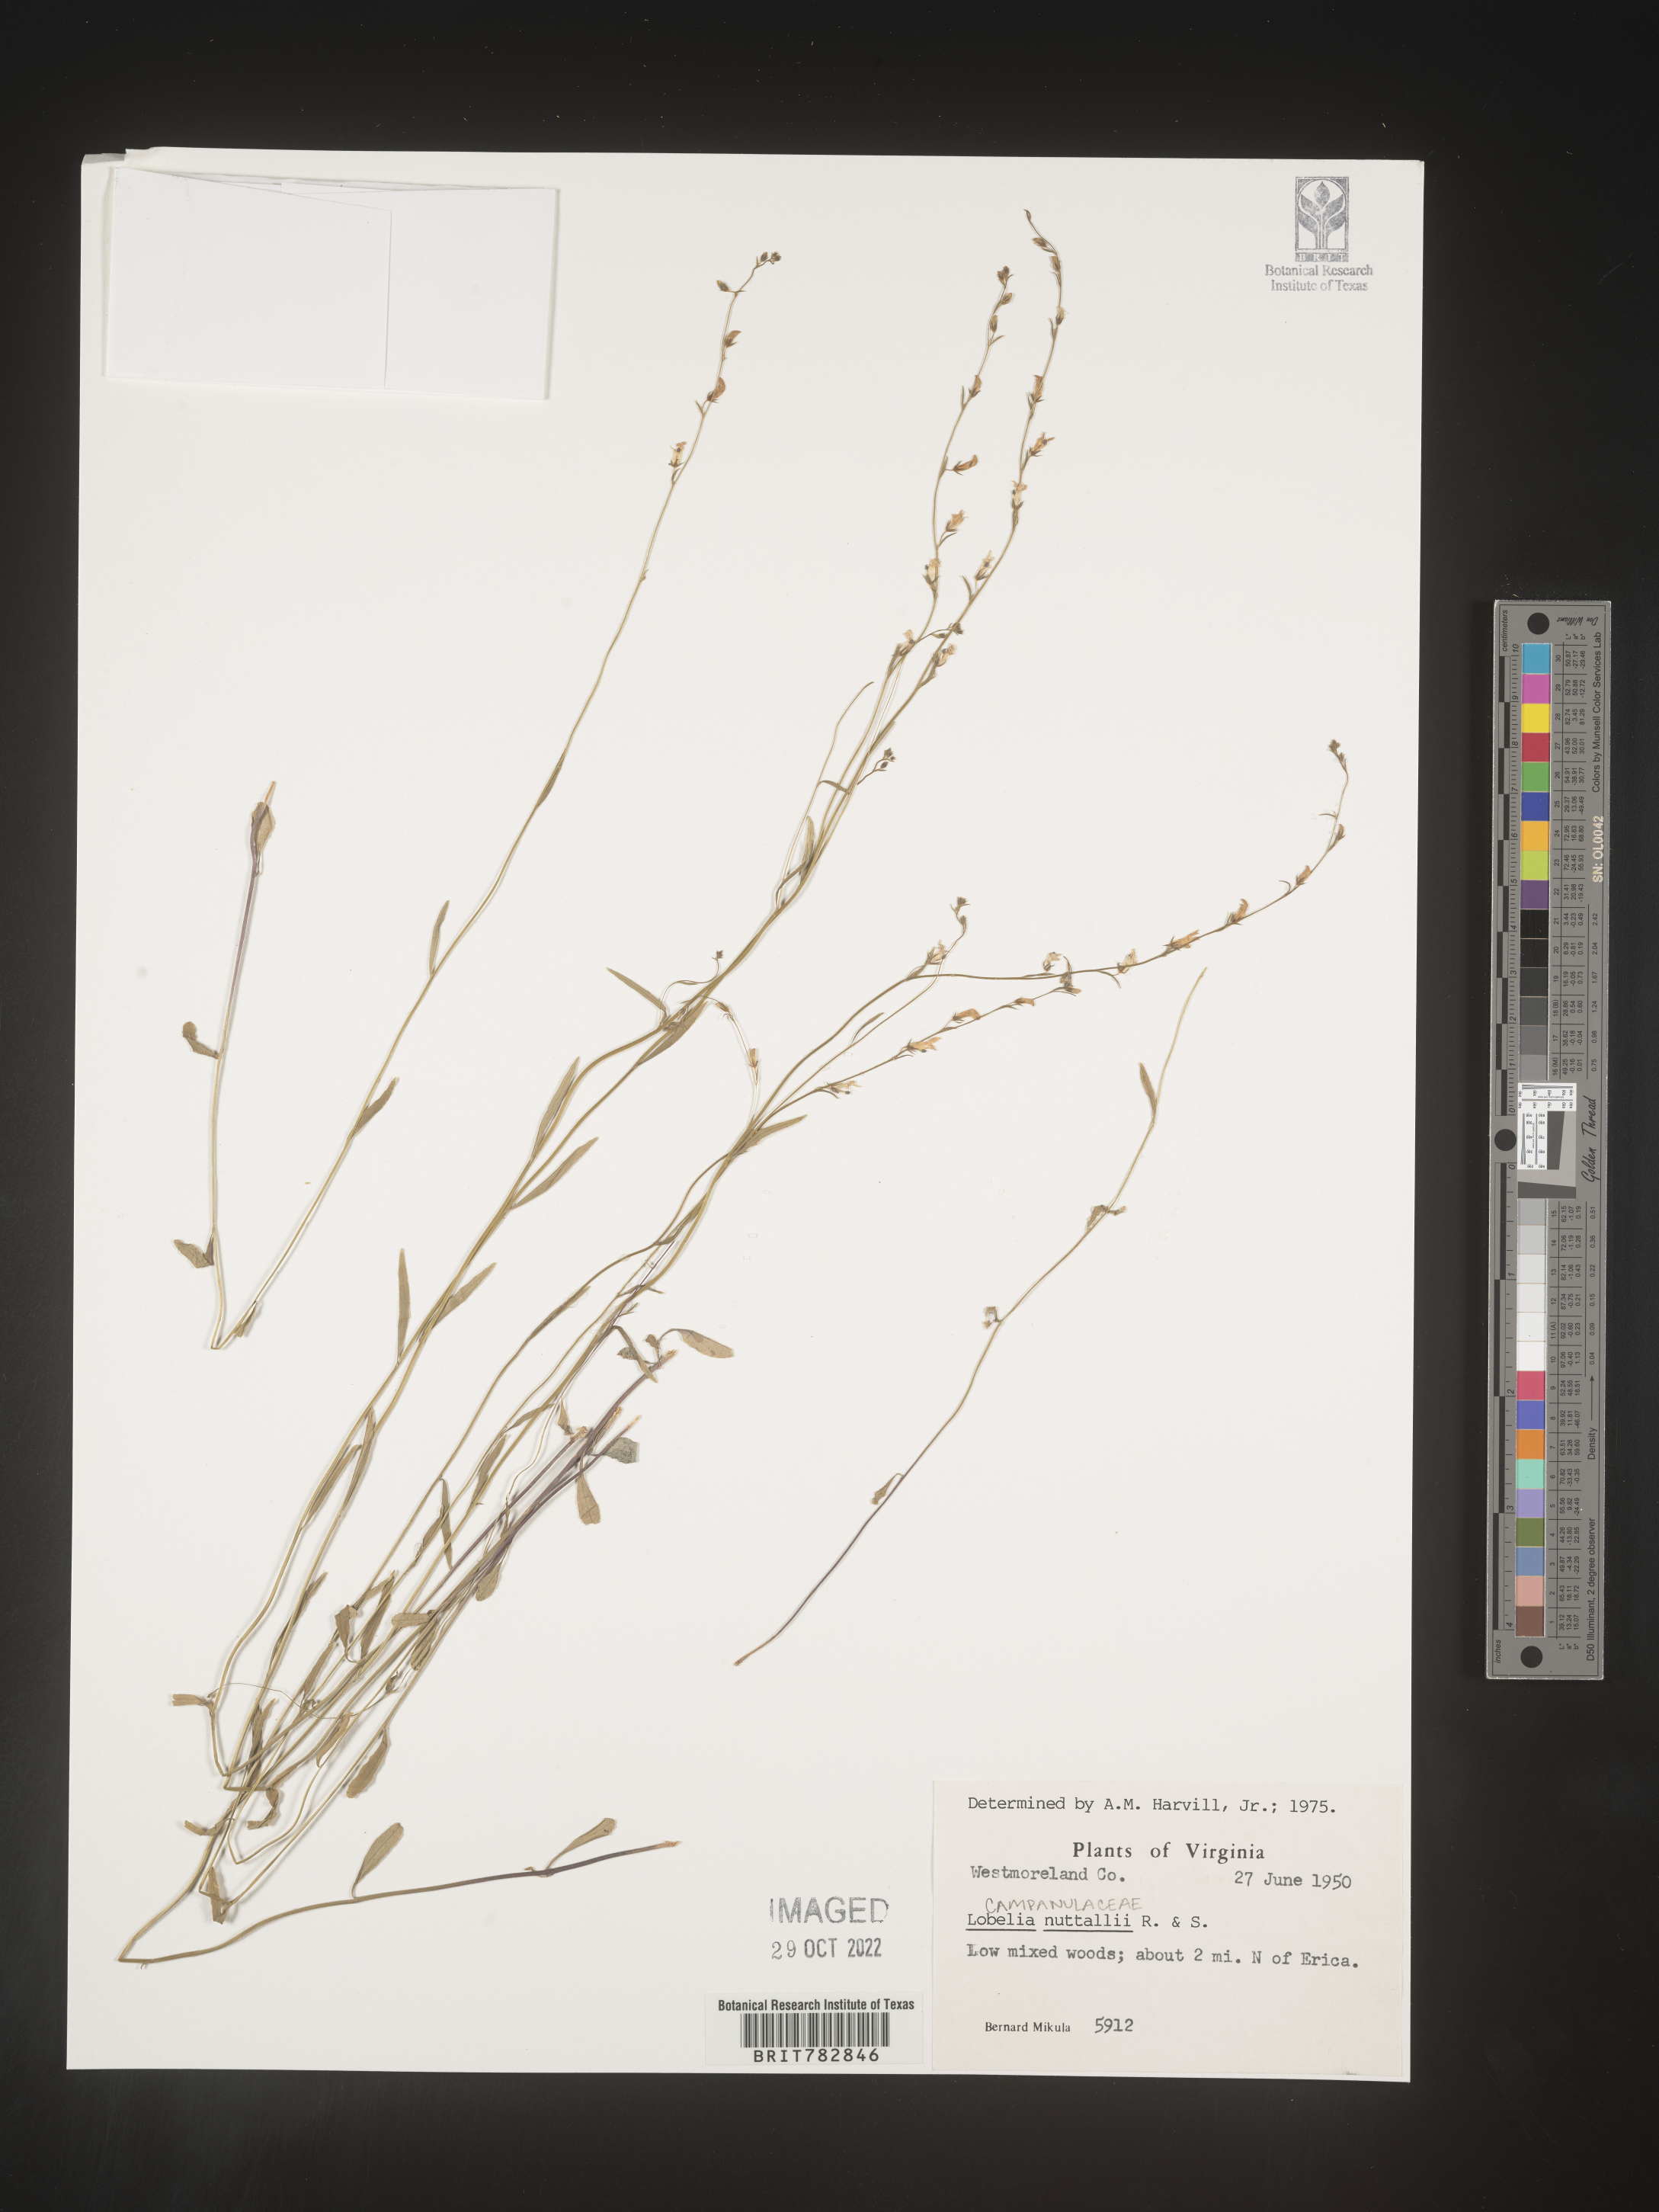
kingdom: Plantae
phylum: Tracheophyta
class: Magnoliopsida
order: Asterales
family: Campanulaceae
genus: Lobelia
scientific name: Lobelia nuttallii
